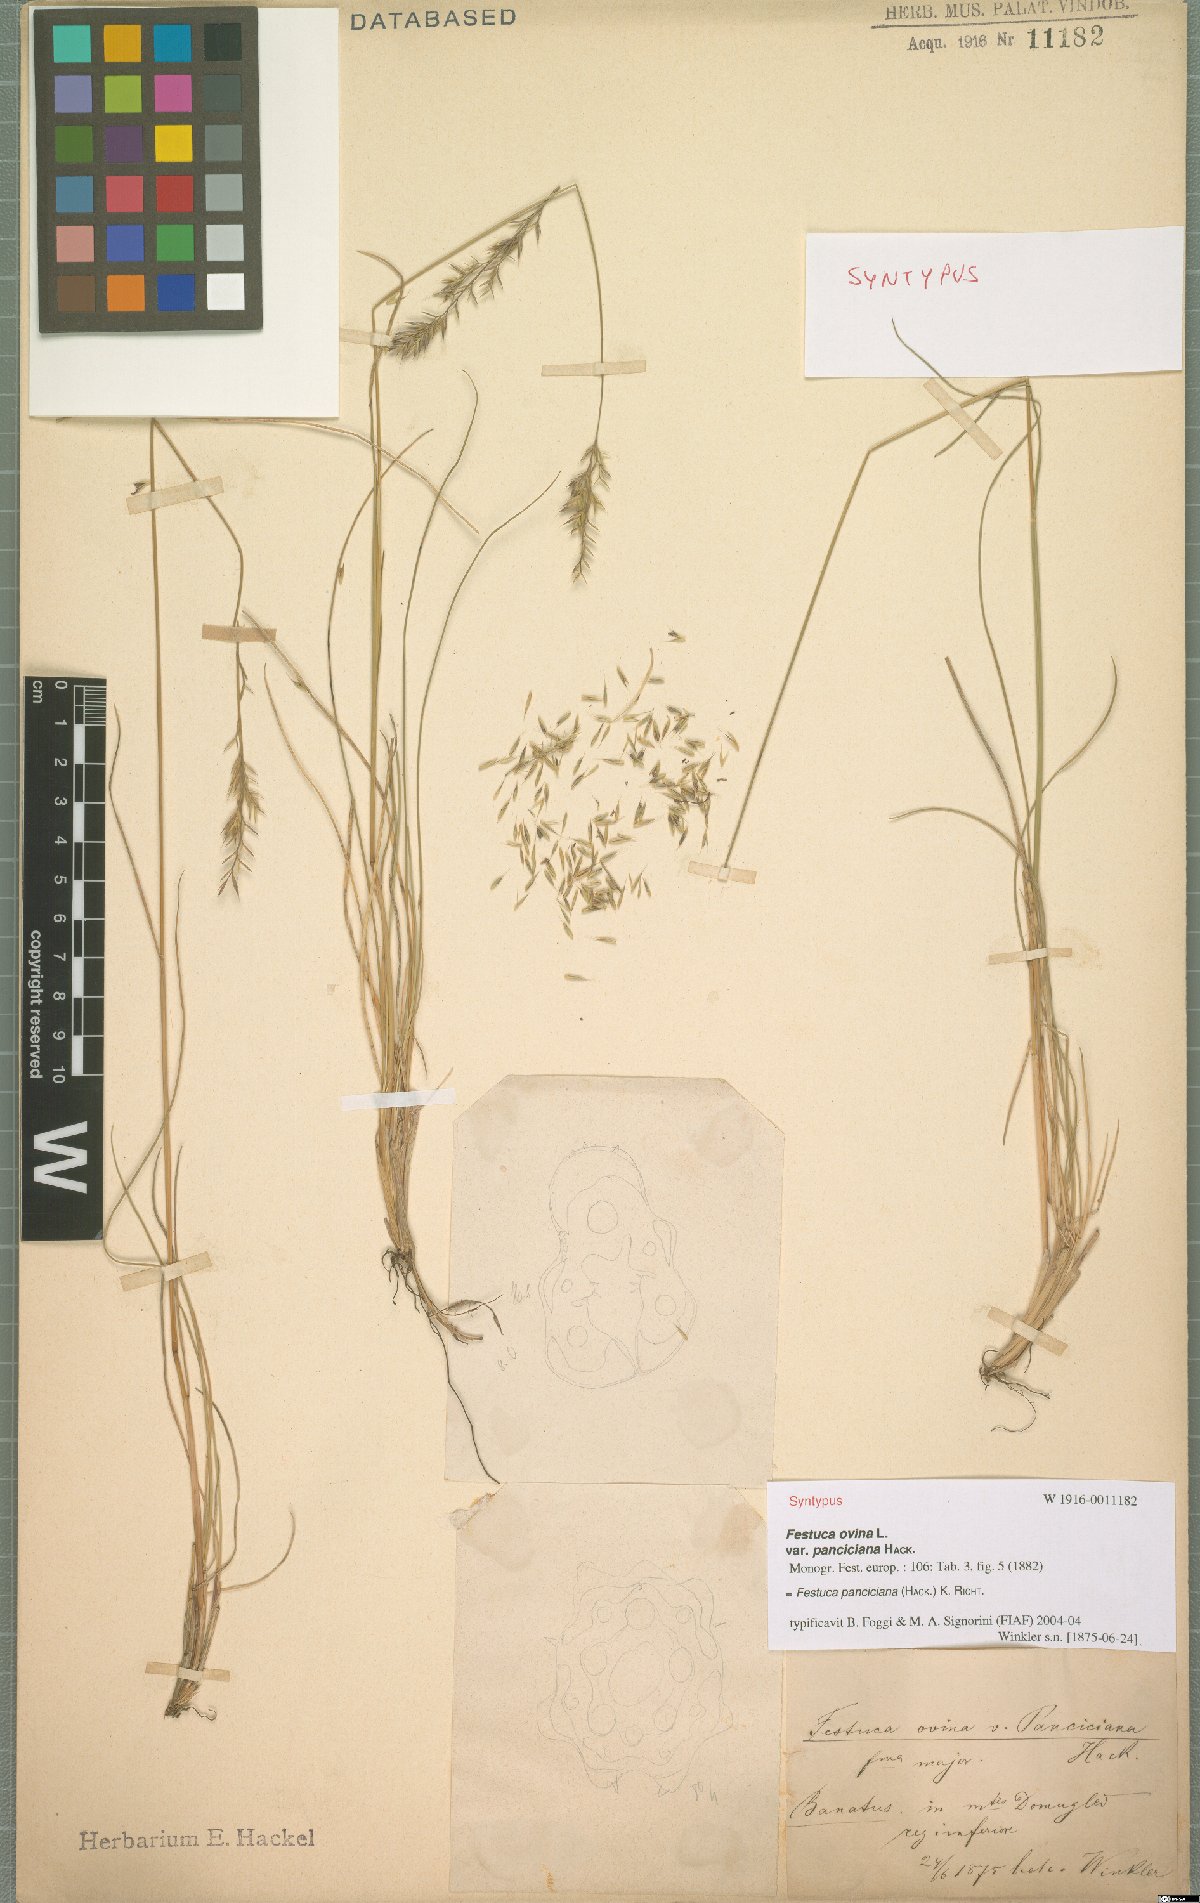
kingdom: Plantae
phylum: Tracheophyta
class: Liliopsida
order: Poales
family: Poaceae
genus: Festuca
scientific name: Festuca panciciana
